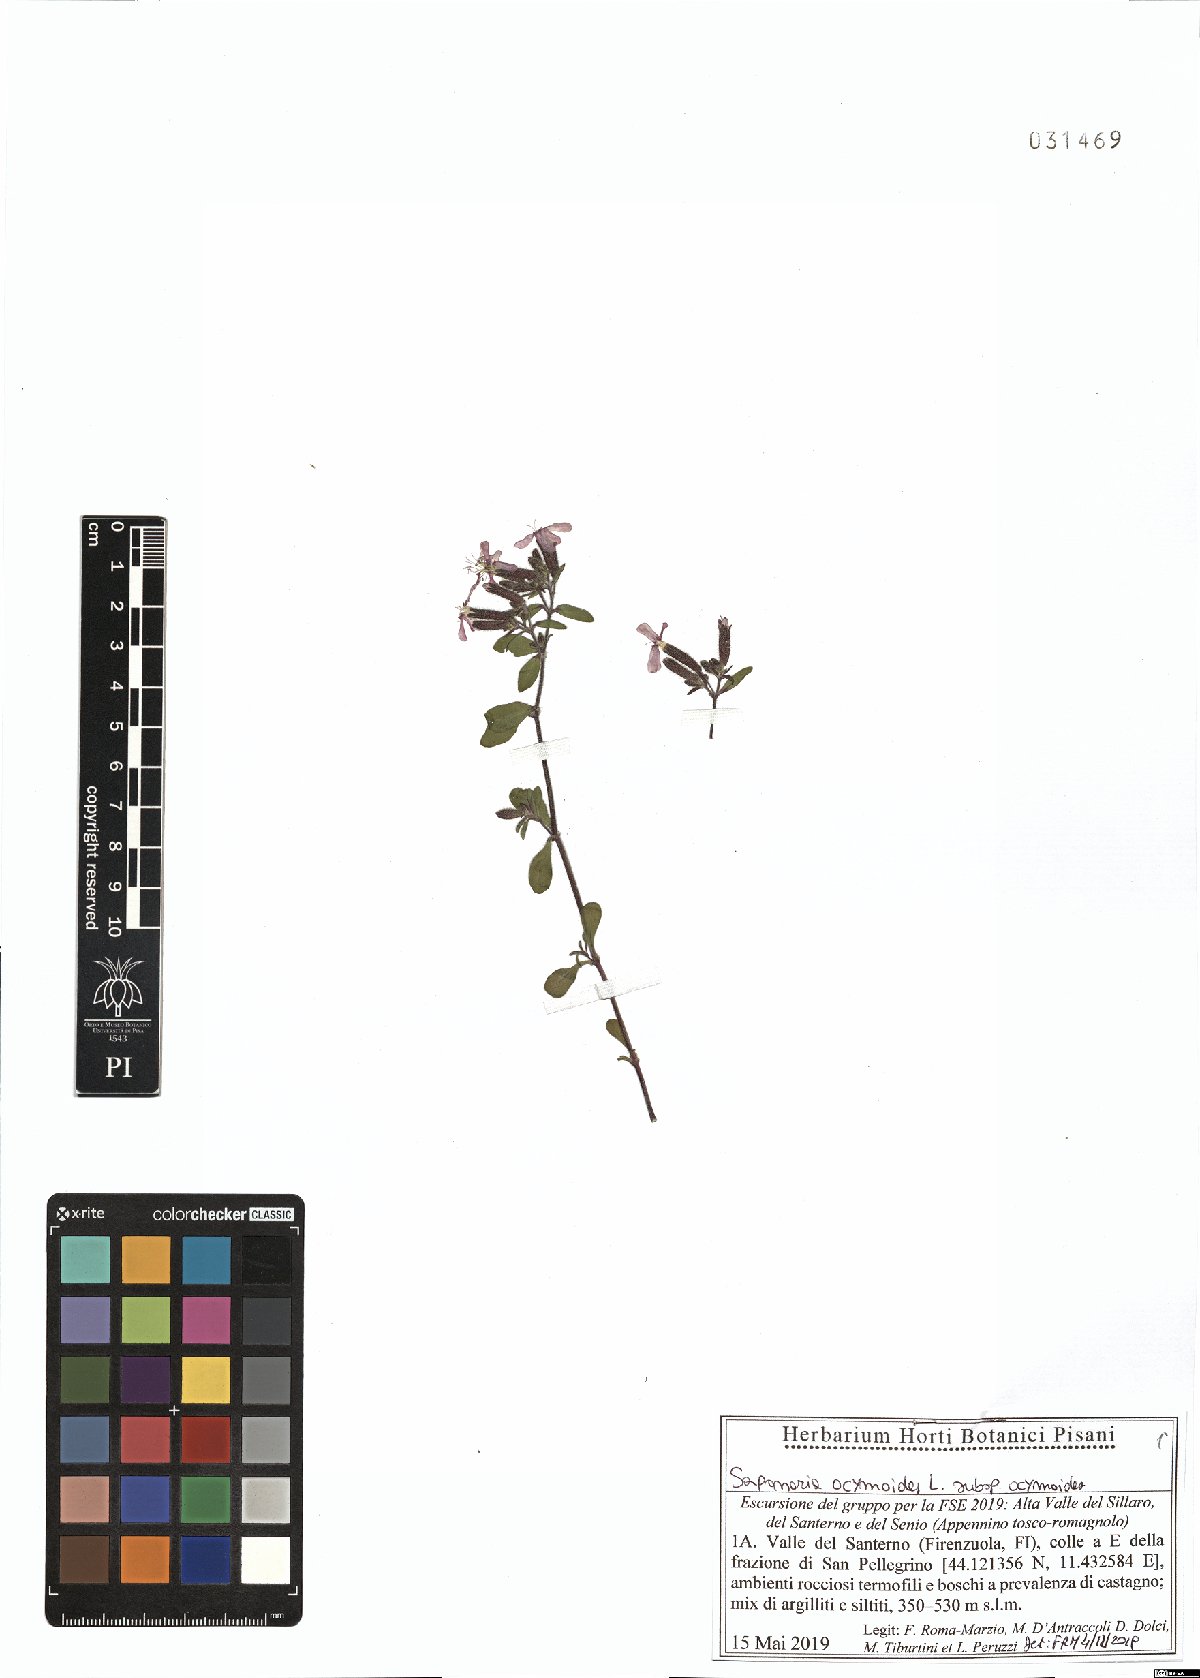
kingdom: Plantae
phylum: Tracheophyta
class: Magnoliopsida
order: Caryophyllales
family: Caryophyllaceae
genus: Saponaria
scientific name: Saponaria ocymoides
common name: Rock soapwort
